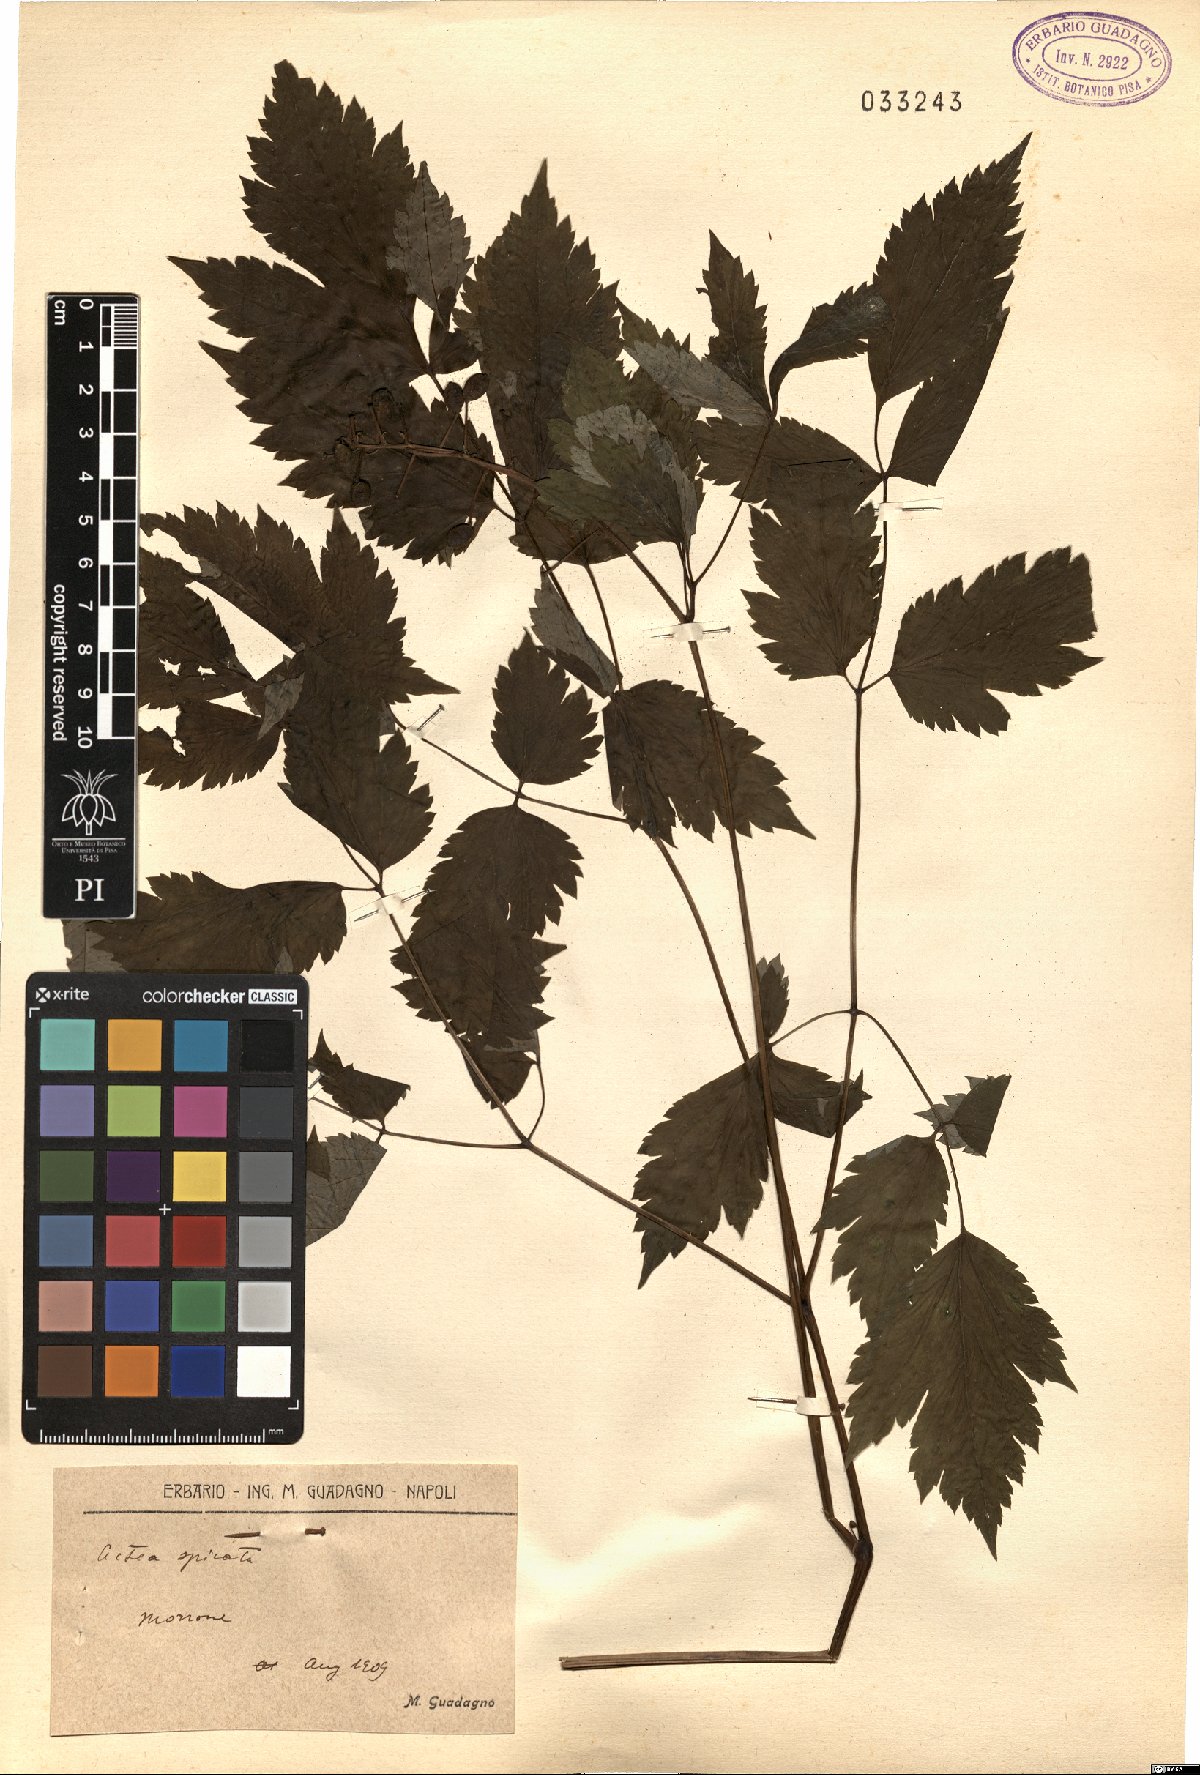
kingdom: Plantae
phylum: Tracheophyta
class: Magnoliopsida
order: Ranunculales
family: Ranunculaceae
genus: Actaea
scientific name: Actaea spicata
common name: Baneberry
